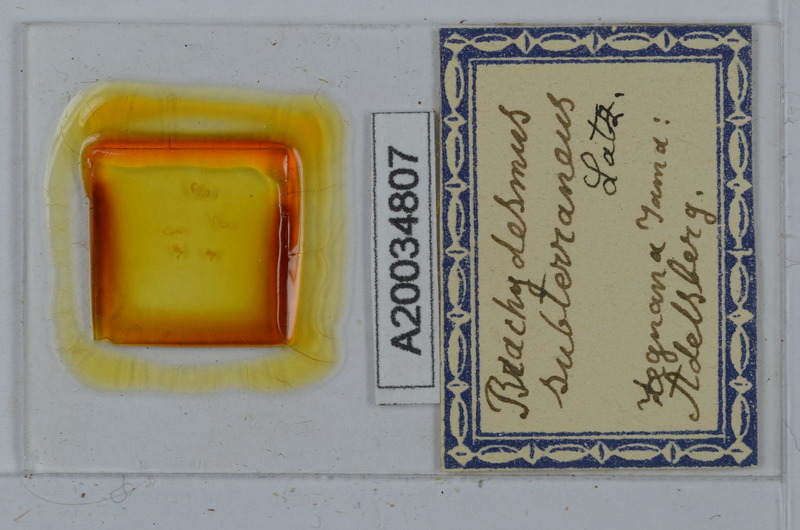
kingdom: Animalia
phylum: Arthropoda
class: Diplopoda
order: Polydesmida
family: Polydesmidae
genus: Brachydesmus
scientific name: Brachydesmus subterraneus
